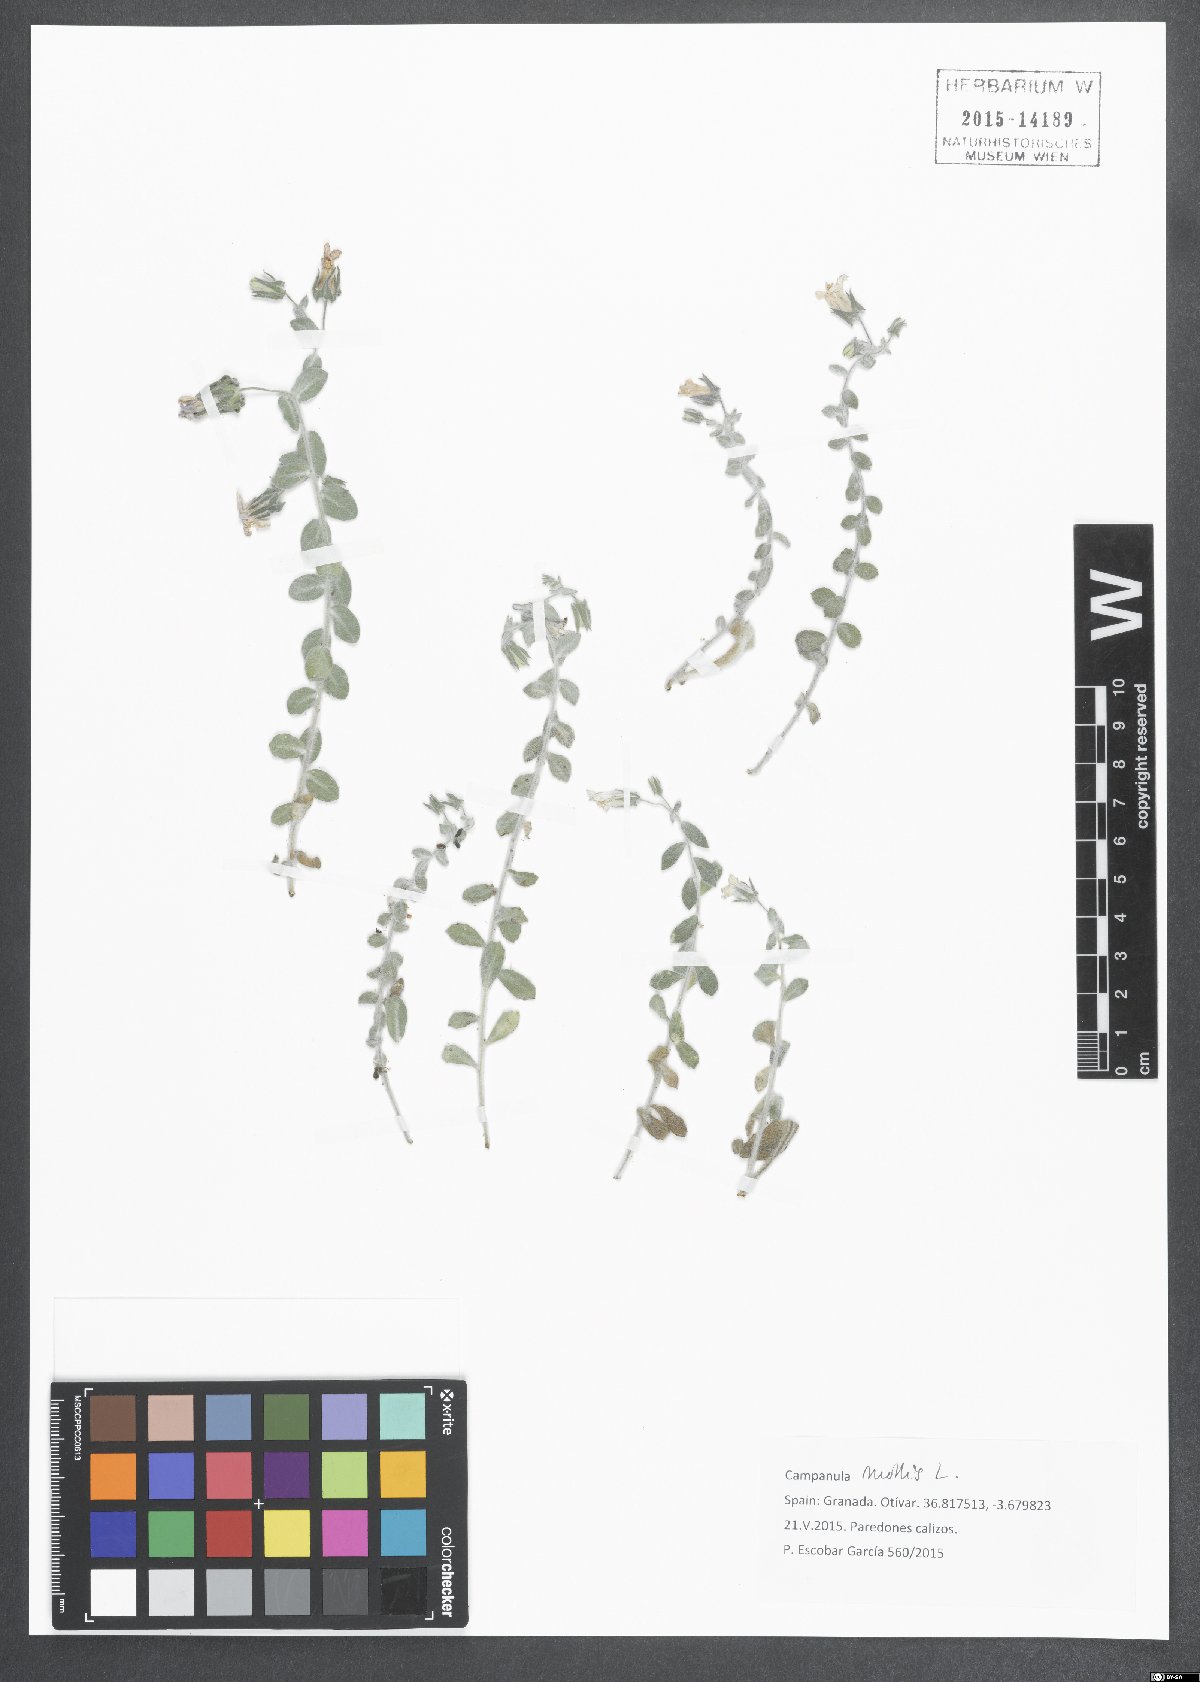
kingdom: Plantae
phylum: Tracheophyta
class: Magnoliopsida
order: Asterales
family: Campanulaceae
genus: Campanula
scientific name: Campanula mollis
